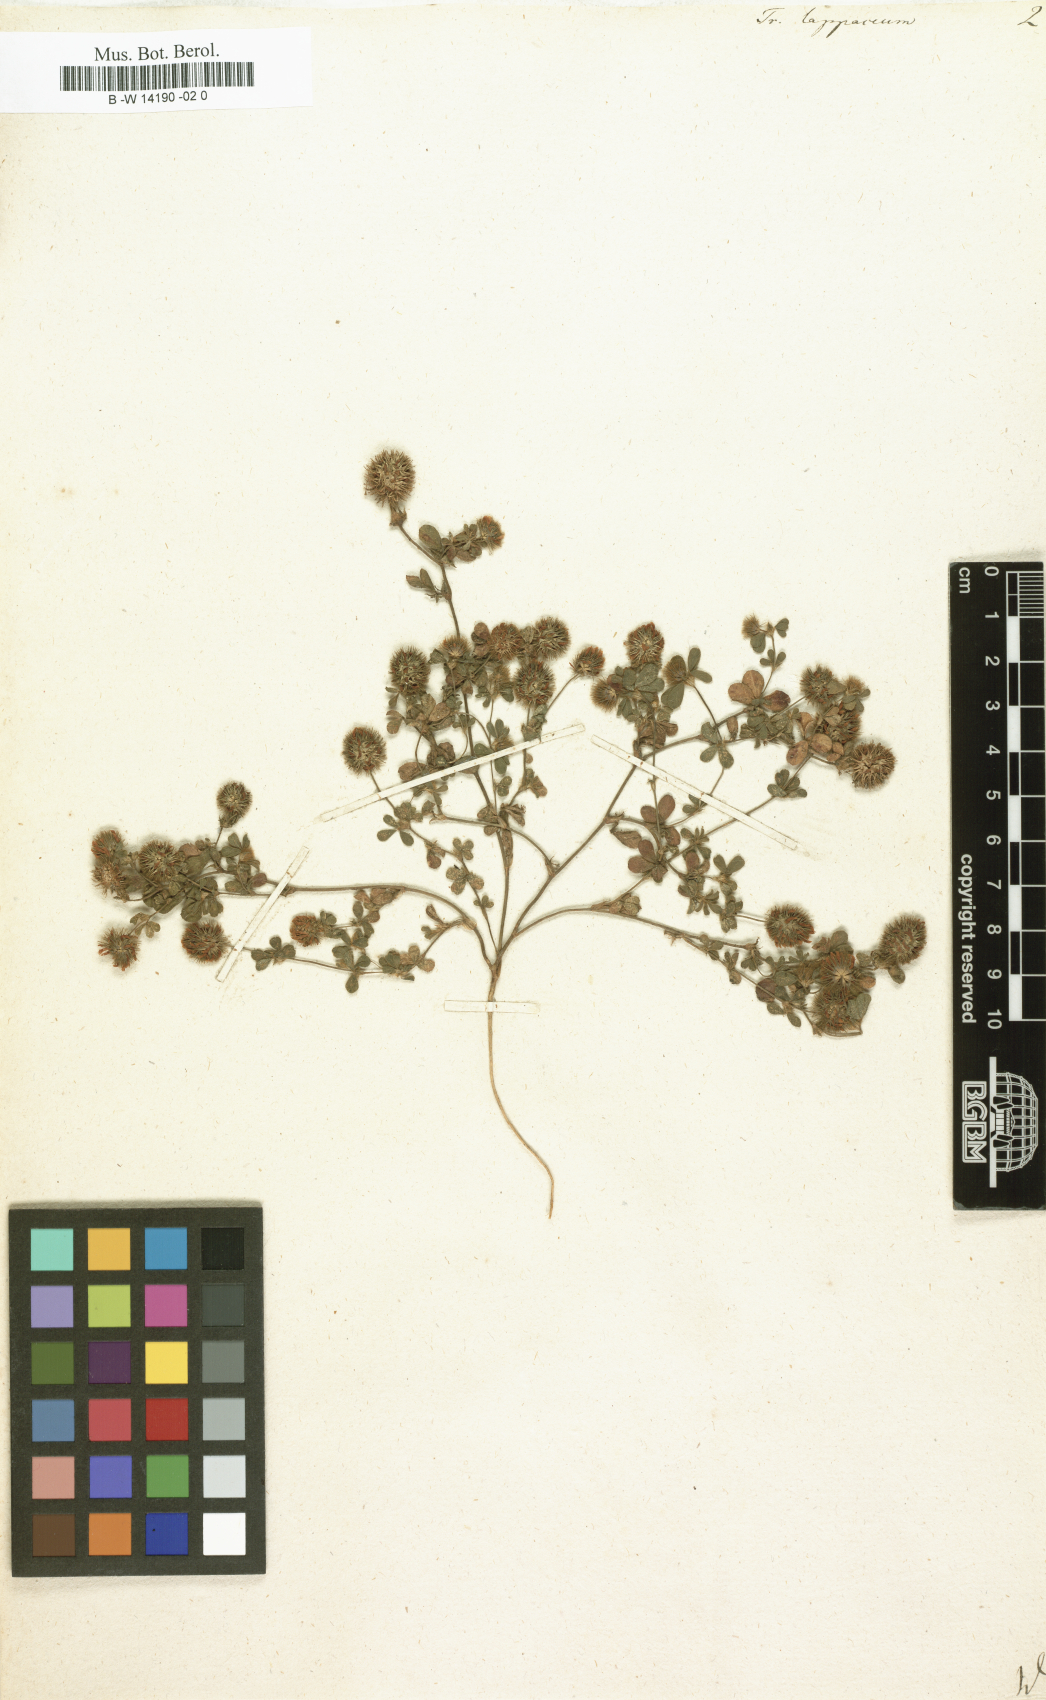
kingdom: Plantae
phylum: Tracheophyta
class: Magnoliopsida
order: Fabales
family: Fabaceae
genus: Trifolium
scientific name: Trifolium lappaceum
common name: Bur clover
